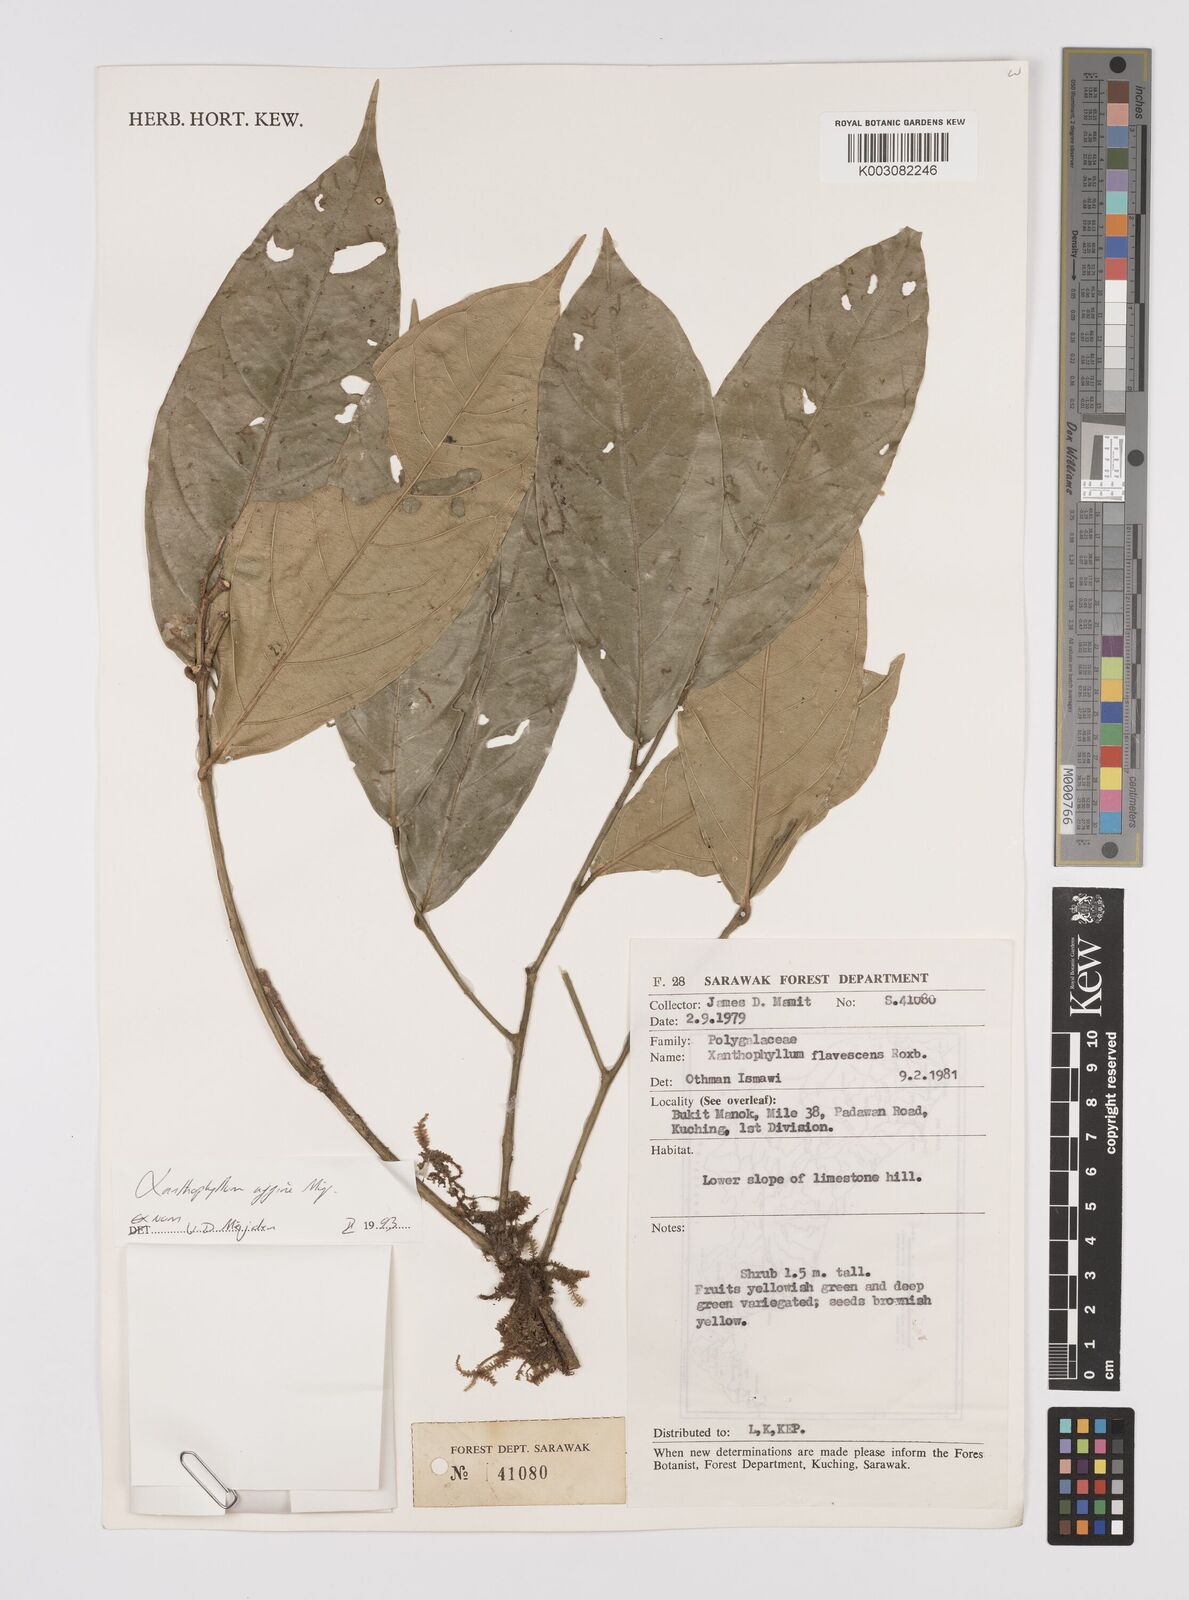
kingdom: Plantae
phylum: Tracheophyta
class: Magnoliopsida
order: Fabales
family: Polygalaceae
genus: Xanthophyllum
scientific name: Xanthophyllum flavescens
